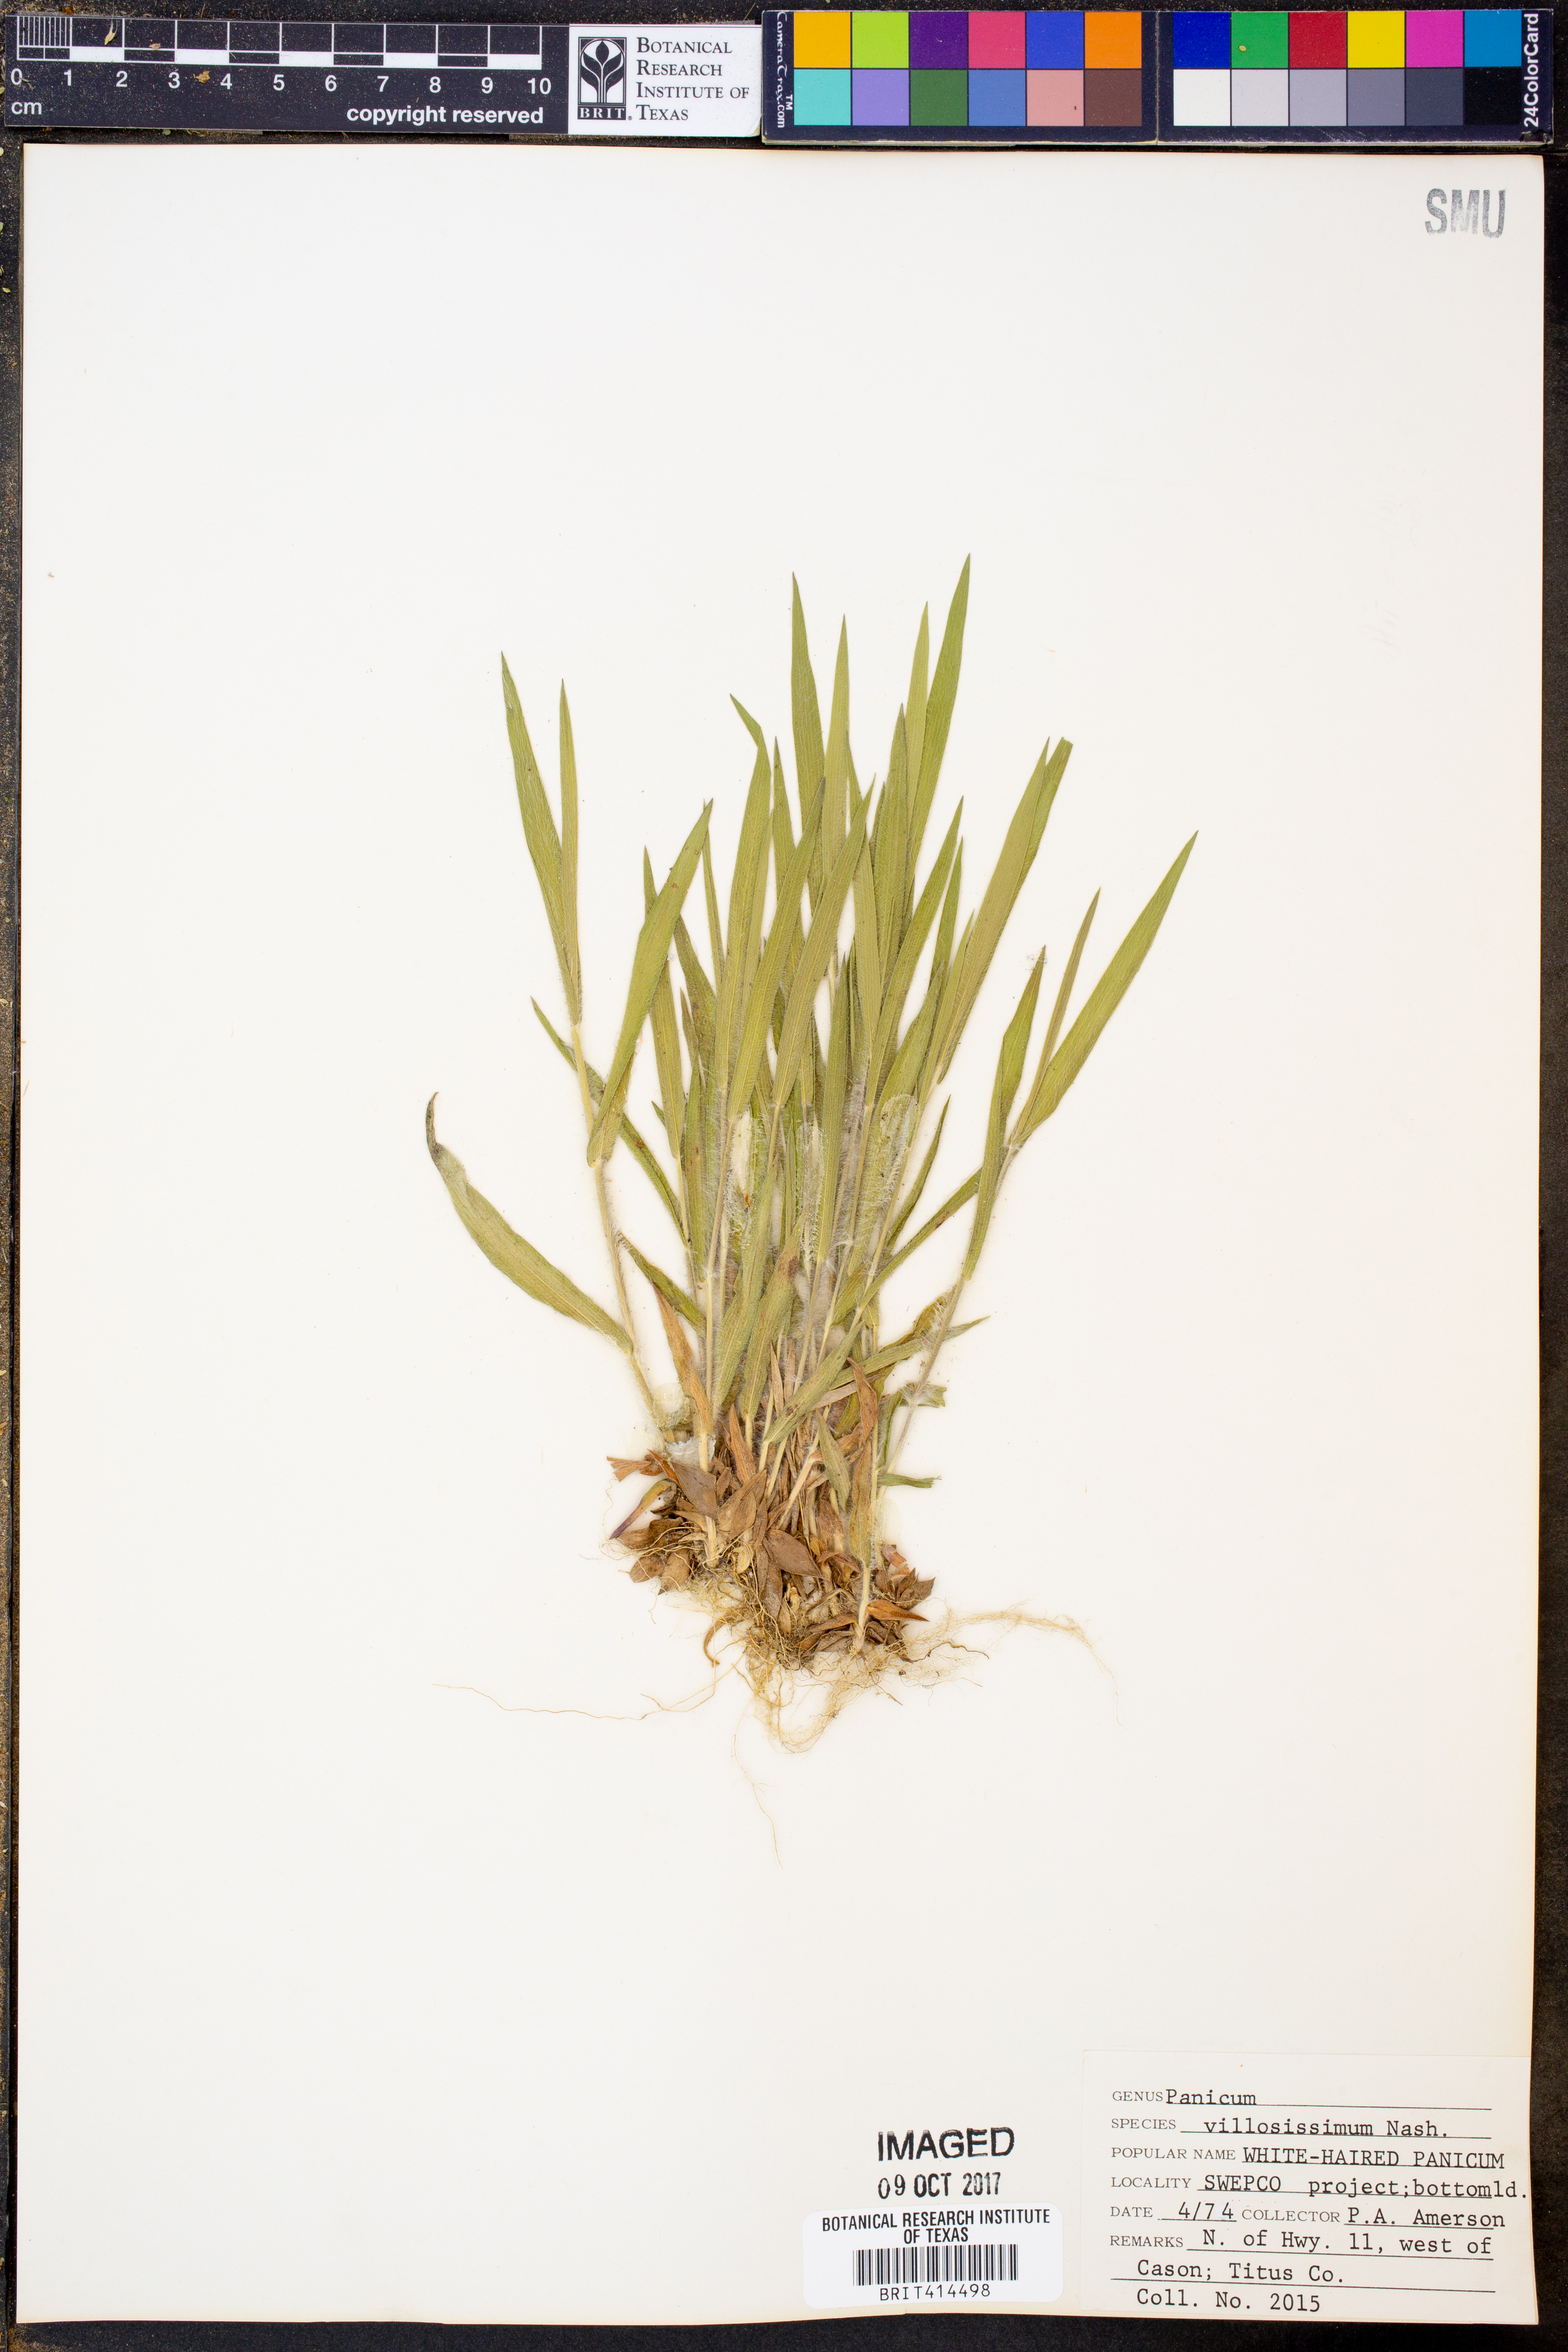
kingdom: Plantae
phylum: Tracheophyta
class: Liliopsida
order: Poales
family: Poaceae
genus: Dichanthelium
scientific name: Dichanthelium villosissimum
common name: White-haired panicgrass
